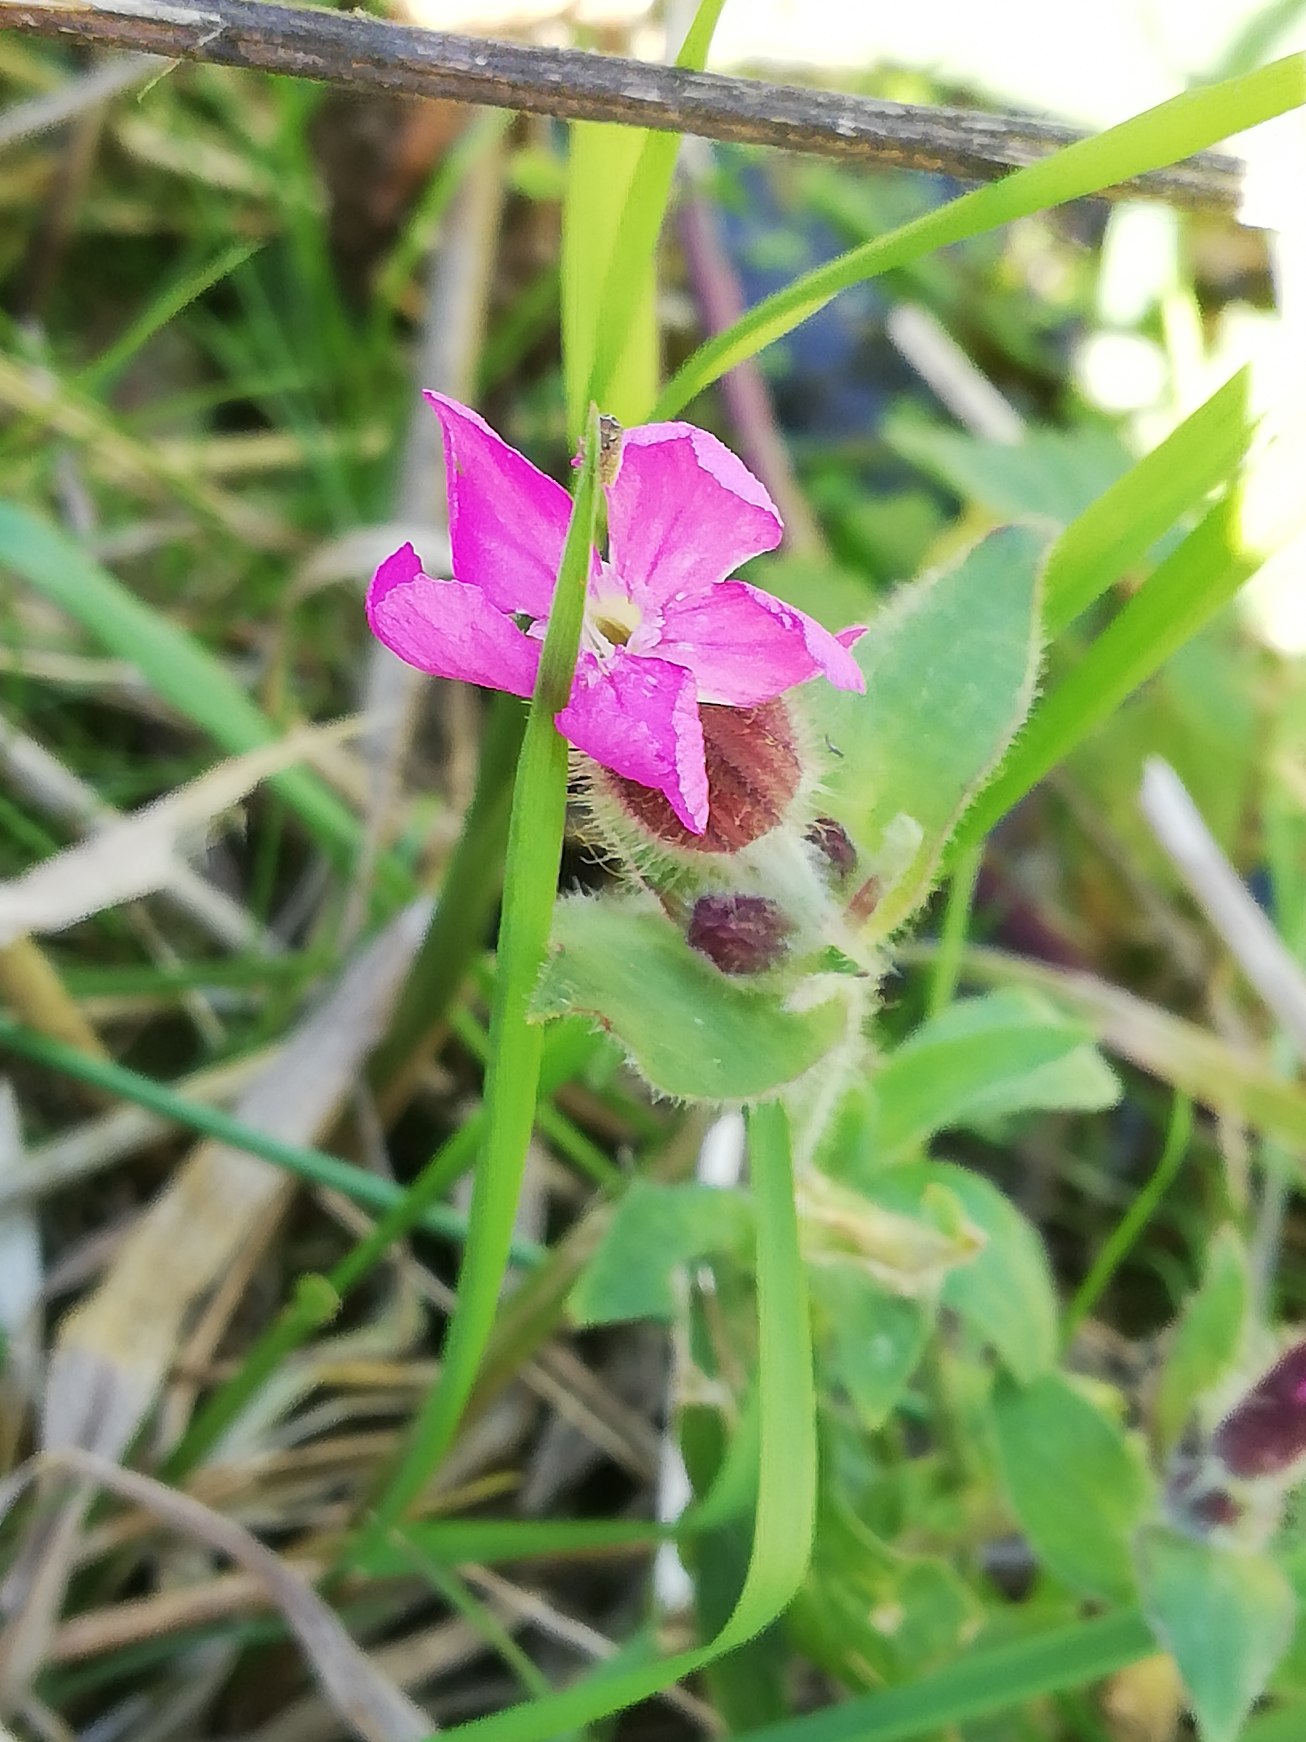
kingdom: Plantae
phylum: Tracheophyta
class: Magnoliopsida
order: Caryophyllales
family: Caryophyllaceae
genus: Silene
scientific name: Silene dioica
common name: Dagpragtstjerne
